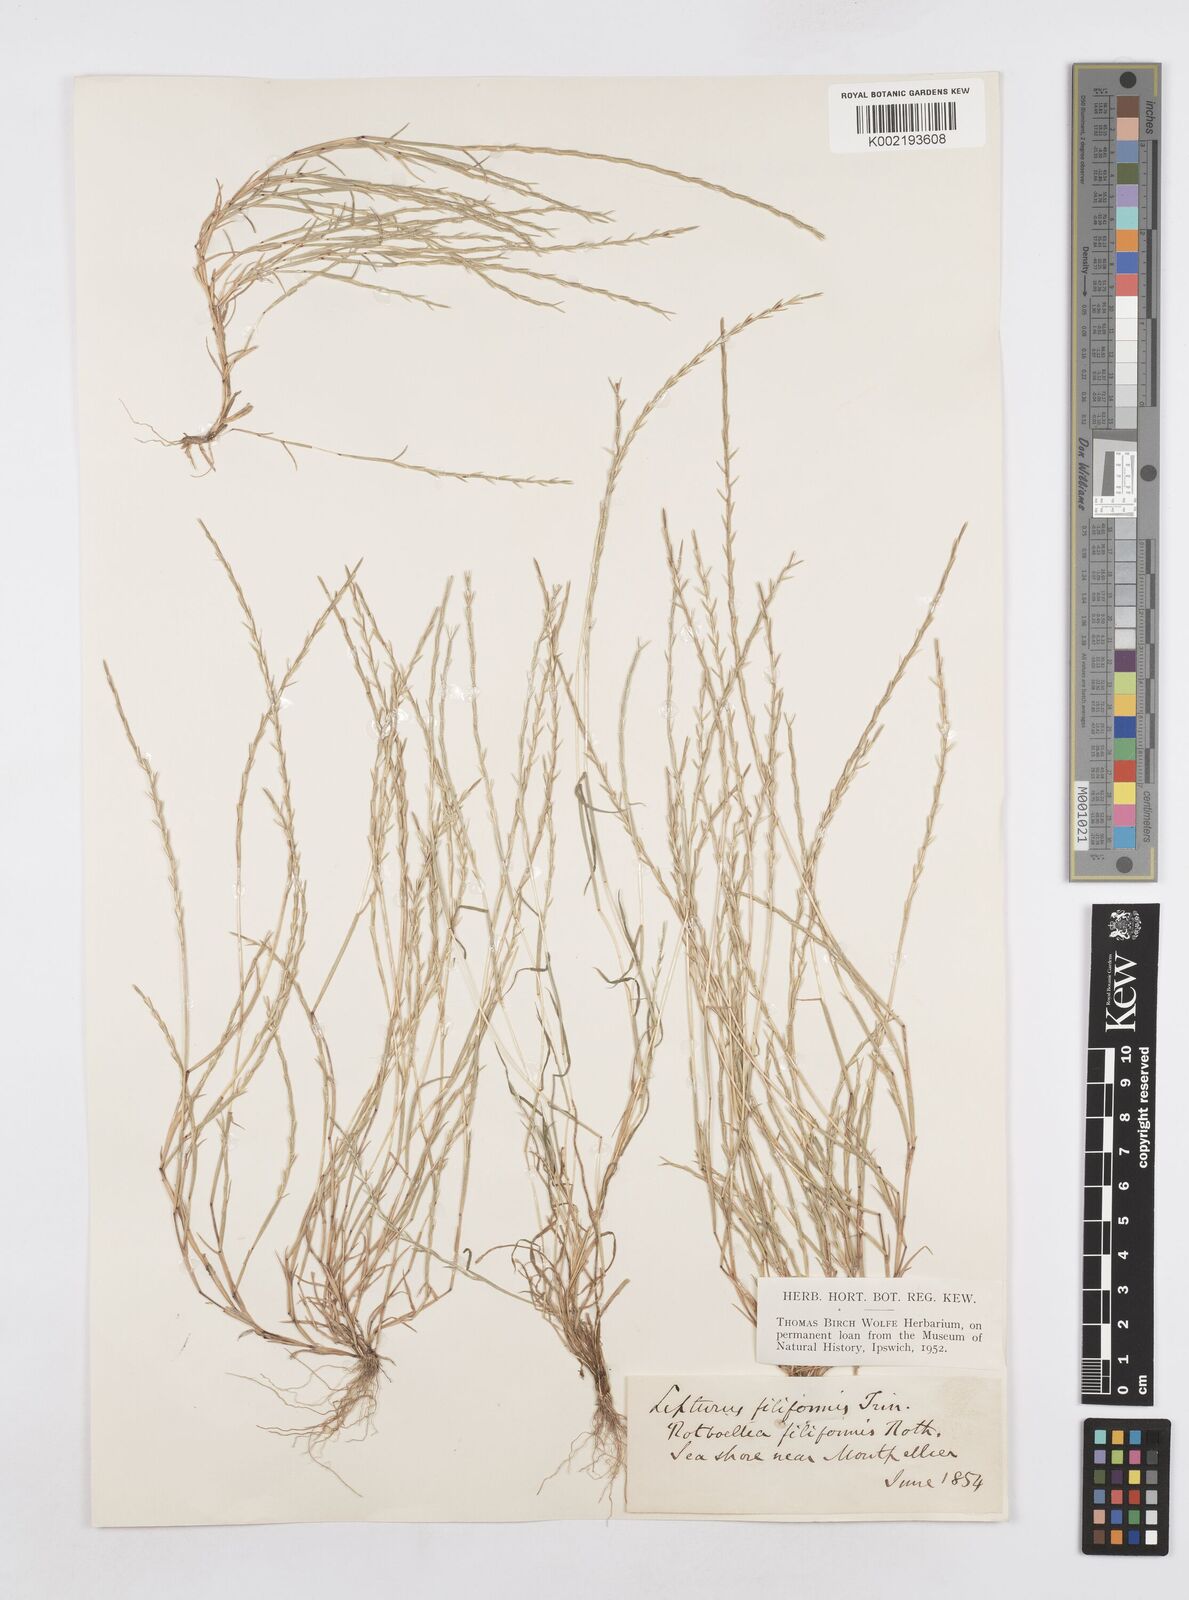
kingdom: Plantae
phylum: Tracheophyta
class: Liliopsida
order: Poales
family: Poaceae
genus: Parapholis
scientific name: Parapholis filiformis
